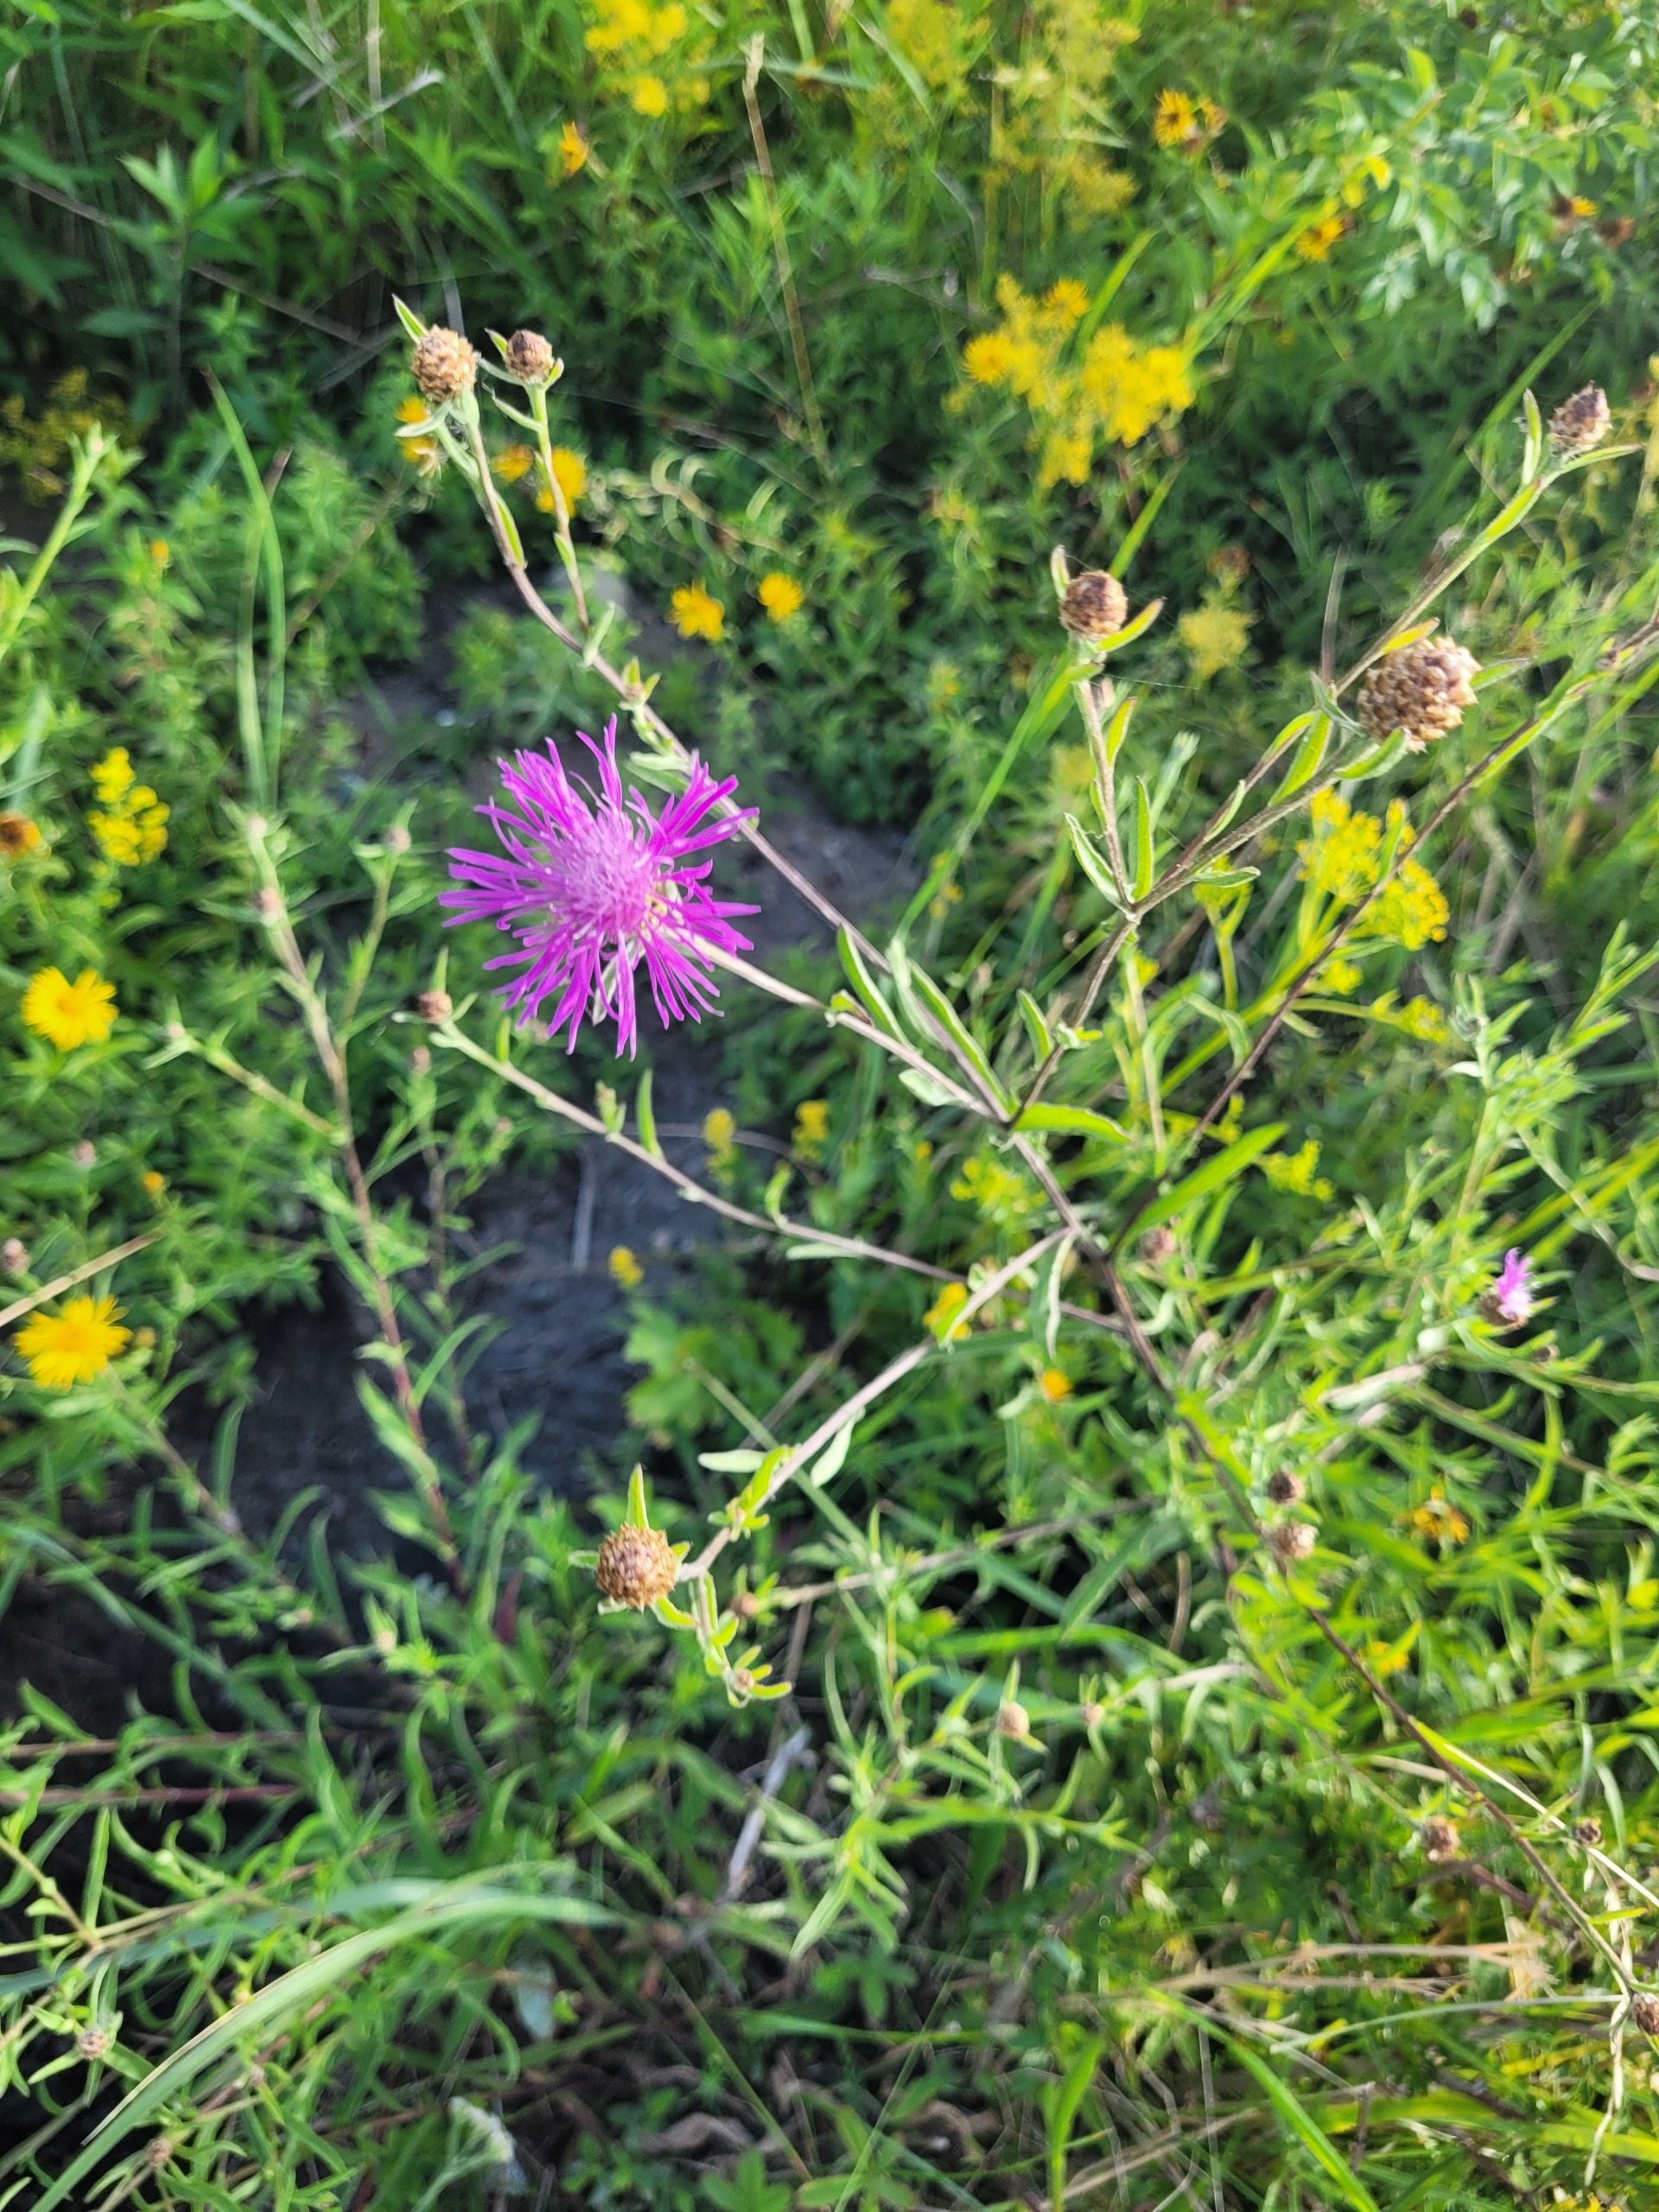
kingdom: Plantae
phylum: Tracheophyta
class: Magnoliopsida
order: Asterales
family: Asteraceae
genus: Centaurea
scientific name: Centaurea jacea
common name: Smalbladet knopurt
